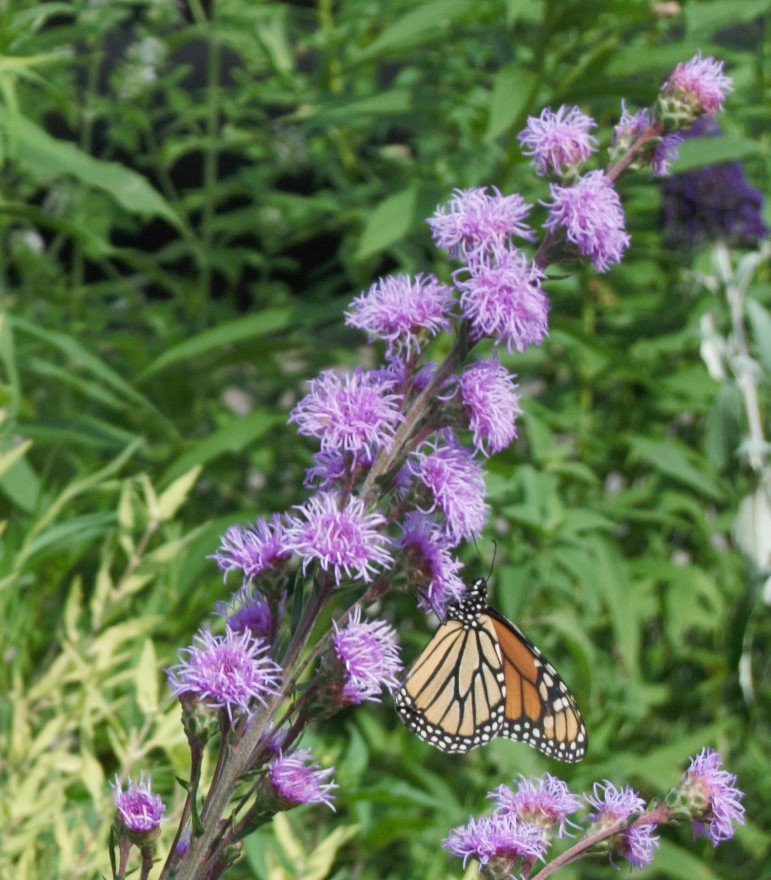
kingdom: Animalia
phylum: Arthropoda
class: Insecta
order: Lepidoptera
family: Nymphalidae
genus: Danaus
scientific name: Danaus plexippus
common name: Monarch
